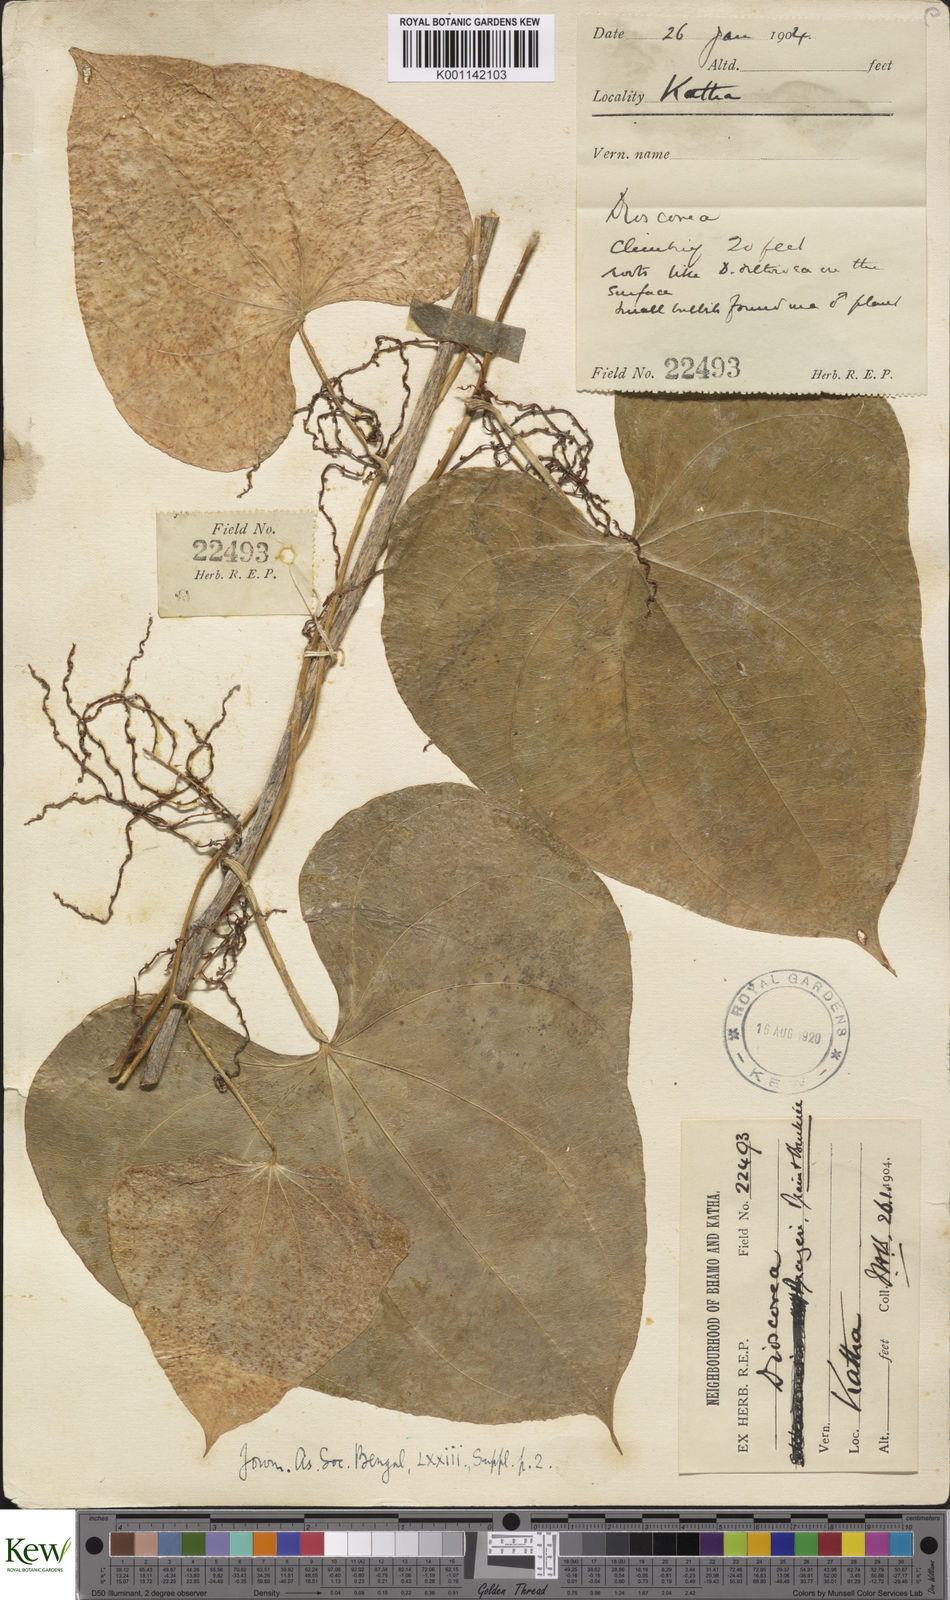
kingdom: Plantae
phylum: Tracheophyta
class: Liliopsida
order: Dioscoreales
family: Dioscoreaceae
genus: Dioscorea
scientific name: Dioscorea prazeri
